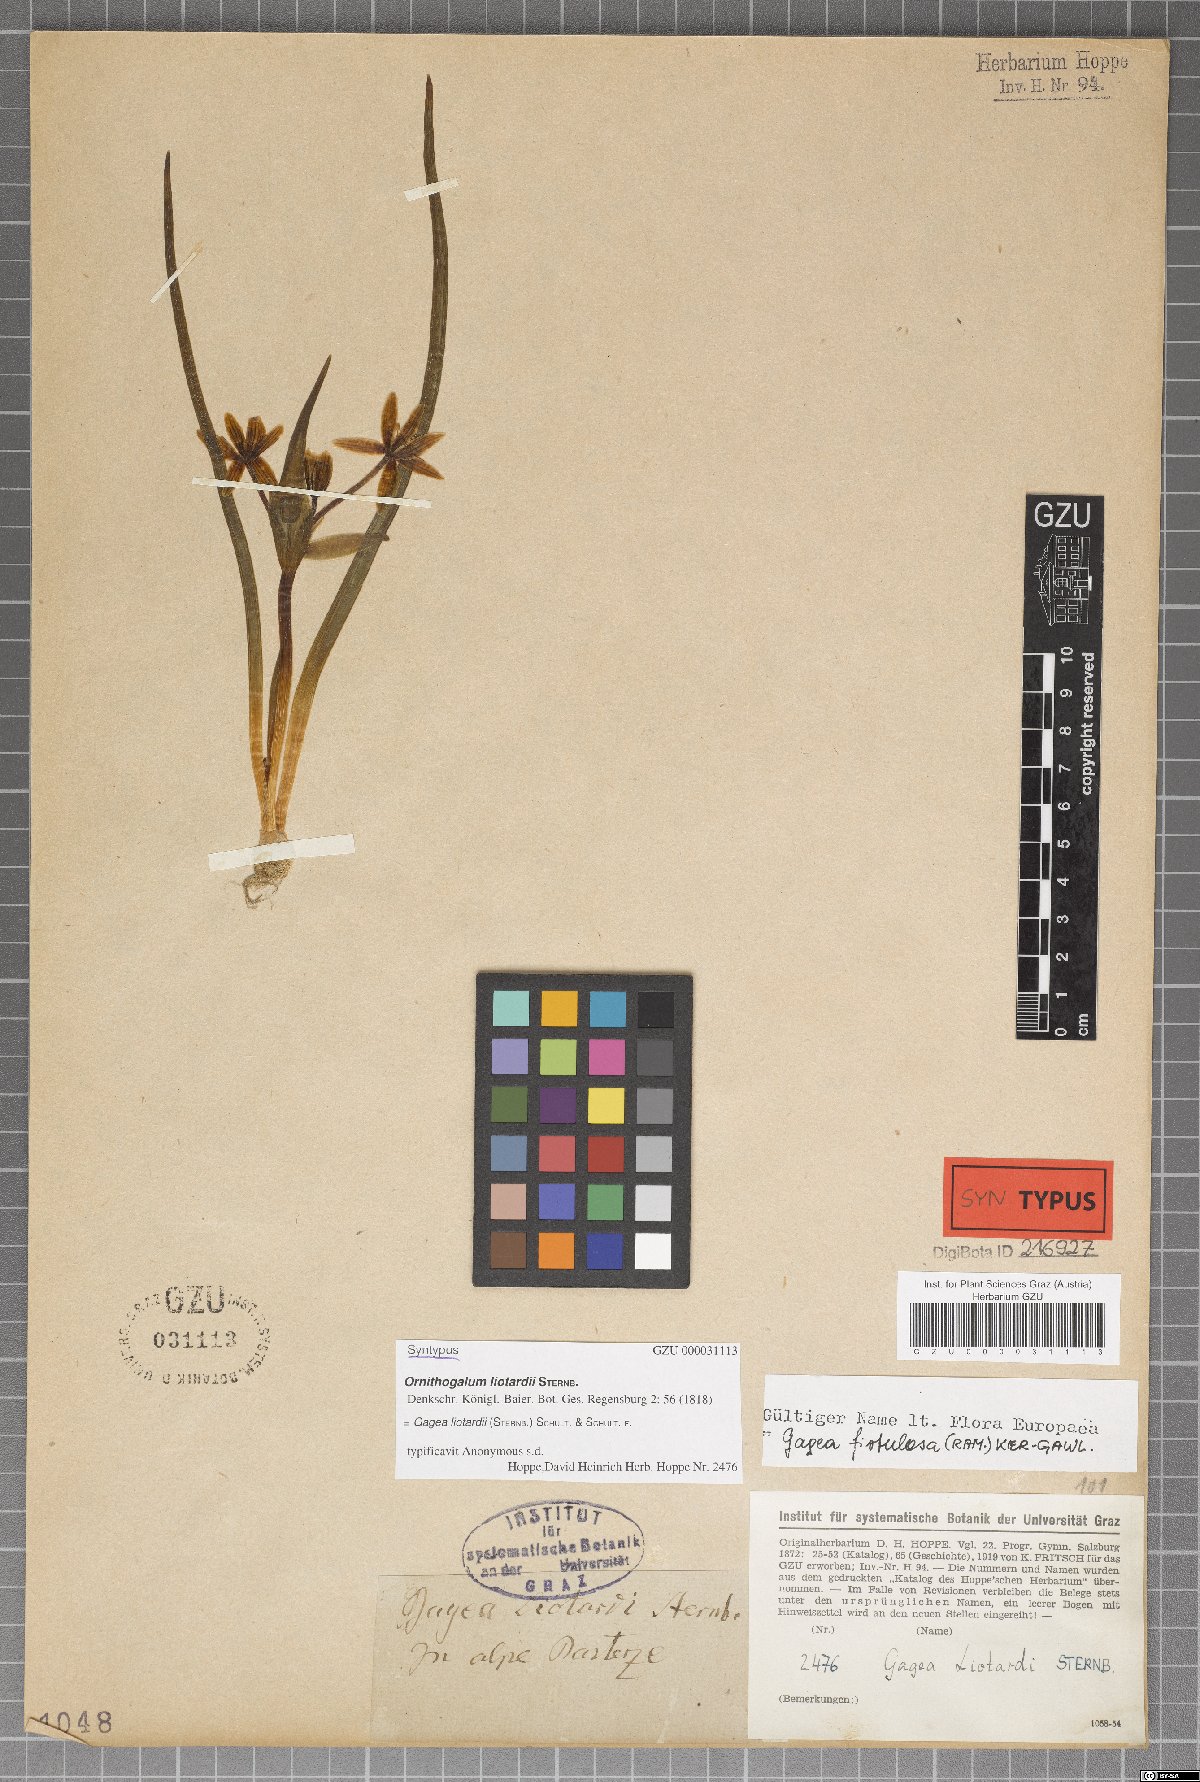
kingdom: Plantae
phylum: Tracheophyta
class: Liliopsida
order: Liliales
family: Liliaceae
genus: Gagea
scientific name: Gagea fragifera
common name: Lily
